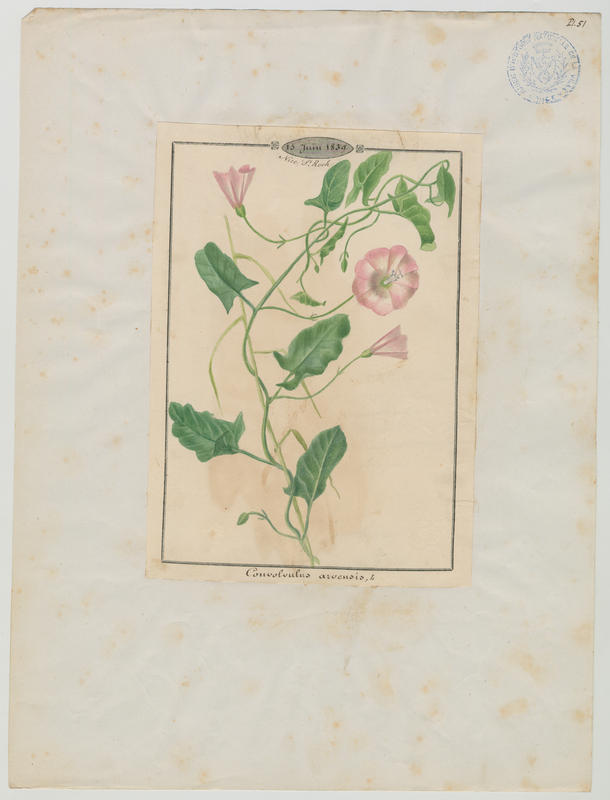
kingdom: Plantae
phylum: Tracheophyta
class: Magnoliopsida
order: Solanales
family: Convolvulaceae
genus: Convolvulus
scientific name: Convolvulus arvensis
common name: Field bindweed
